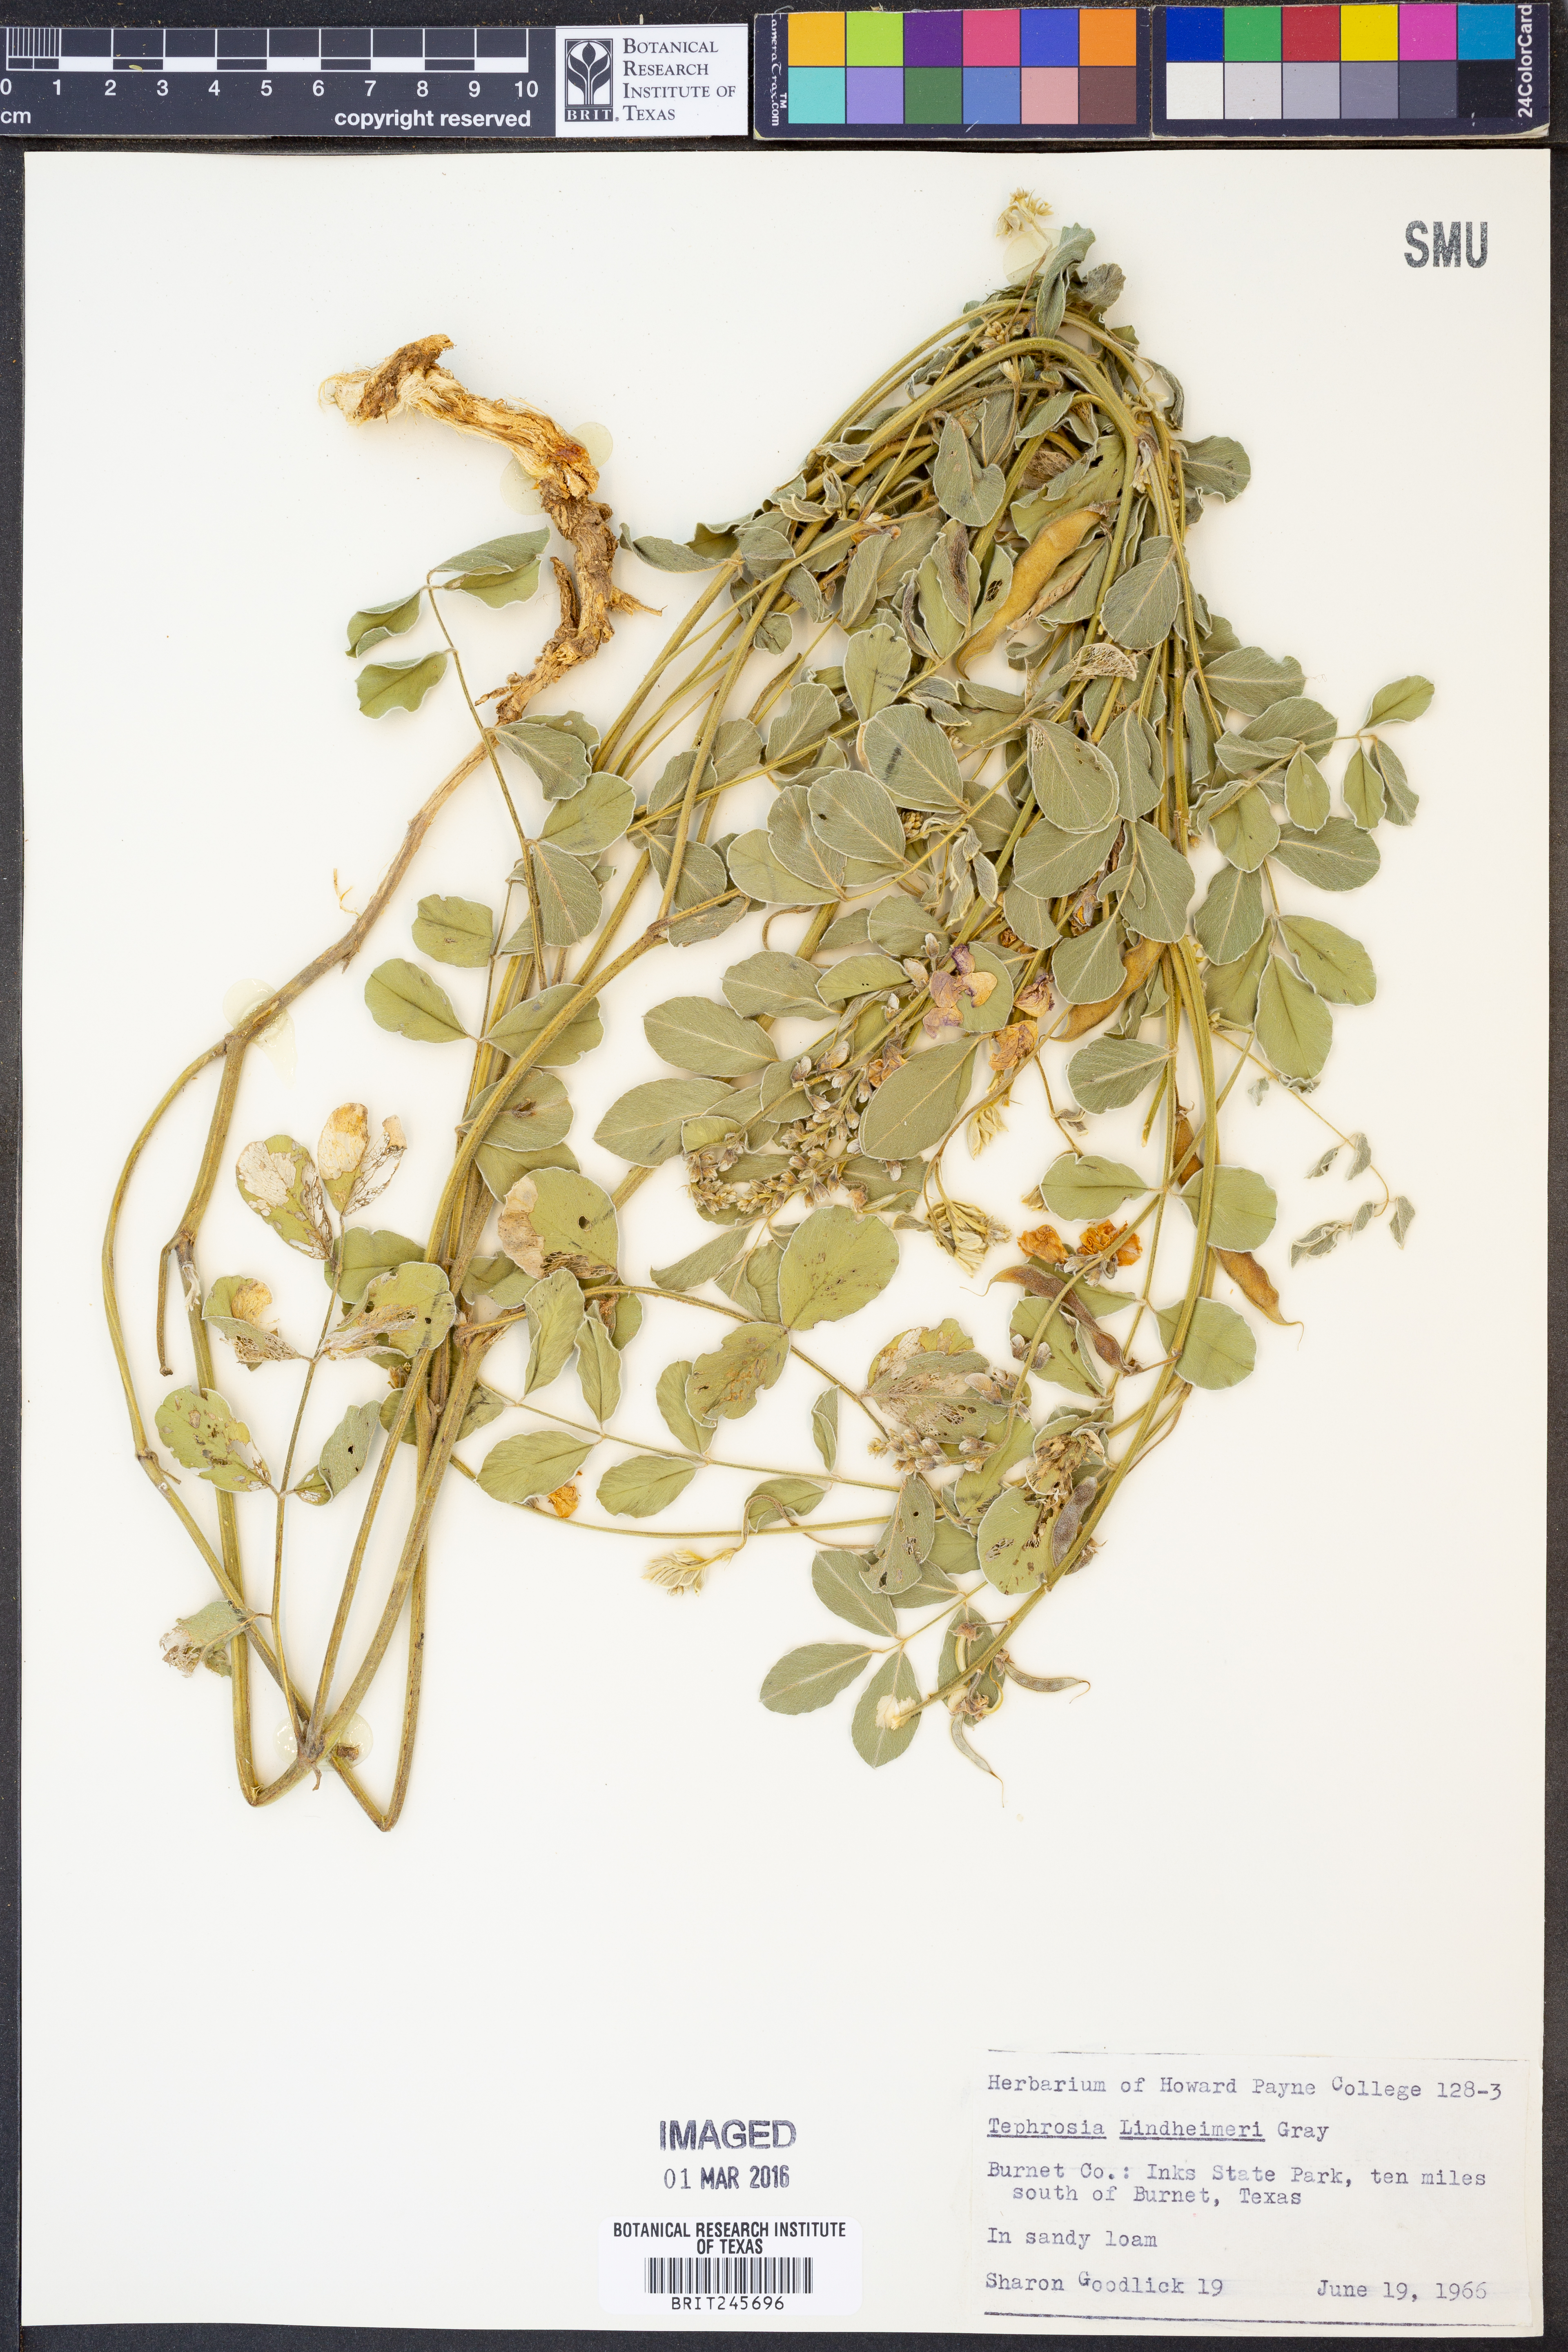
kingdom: Plantae
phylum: Tracheophyta
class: Magnoliopsida
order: Fabales
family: Fabaceae
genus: Tephrosia
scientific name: Tephrosia lindheimeri
